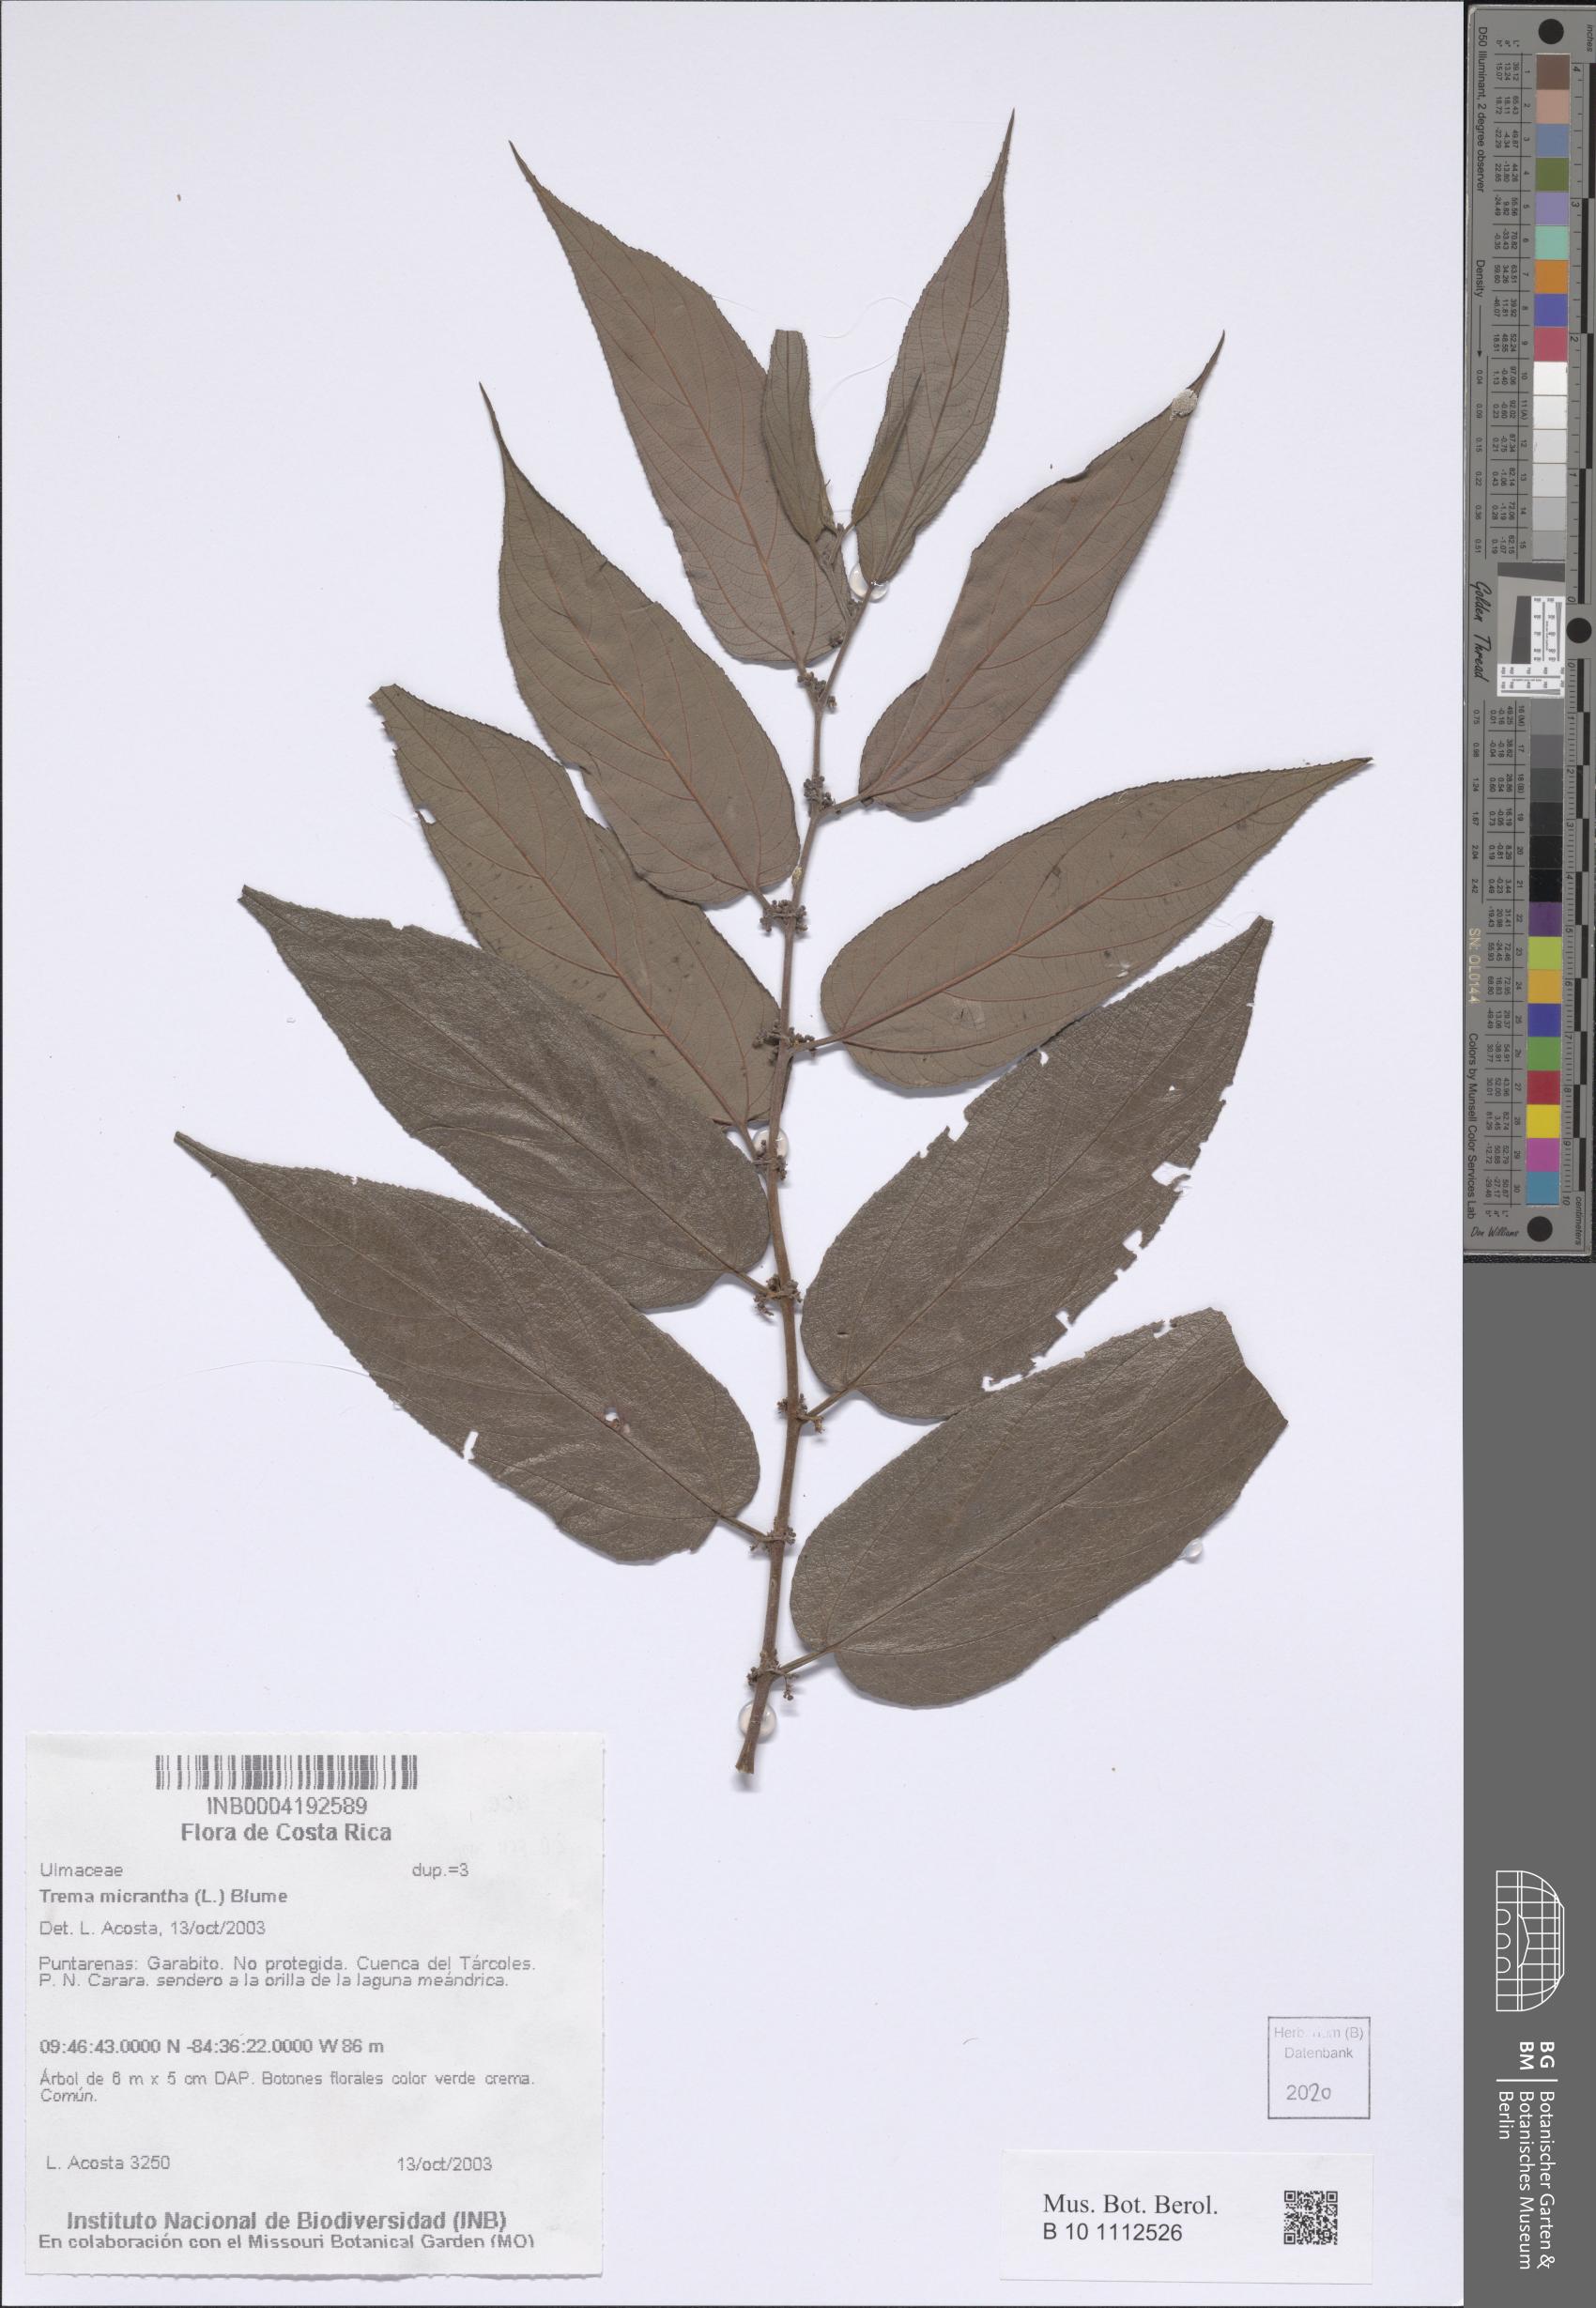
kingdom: Plantae
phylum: Tracheophyta
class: Magnoliopsida
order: Rosales
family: Cannabaceae
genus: Trema
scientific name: Trema micranthum
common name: Jamaican nettletree
